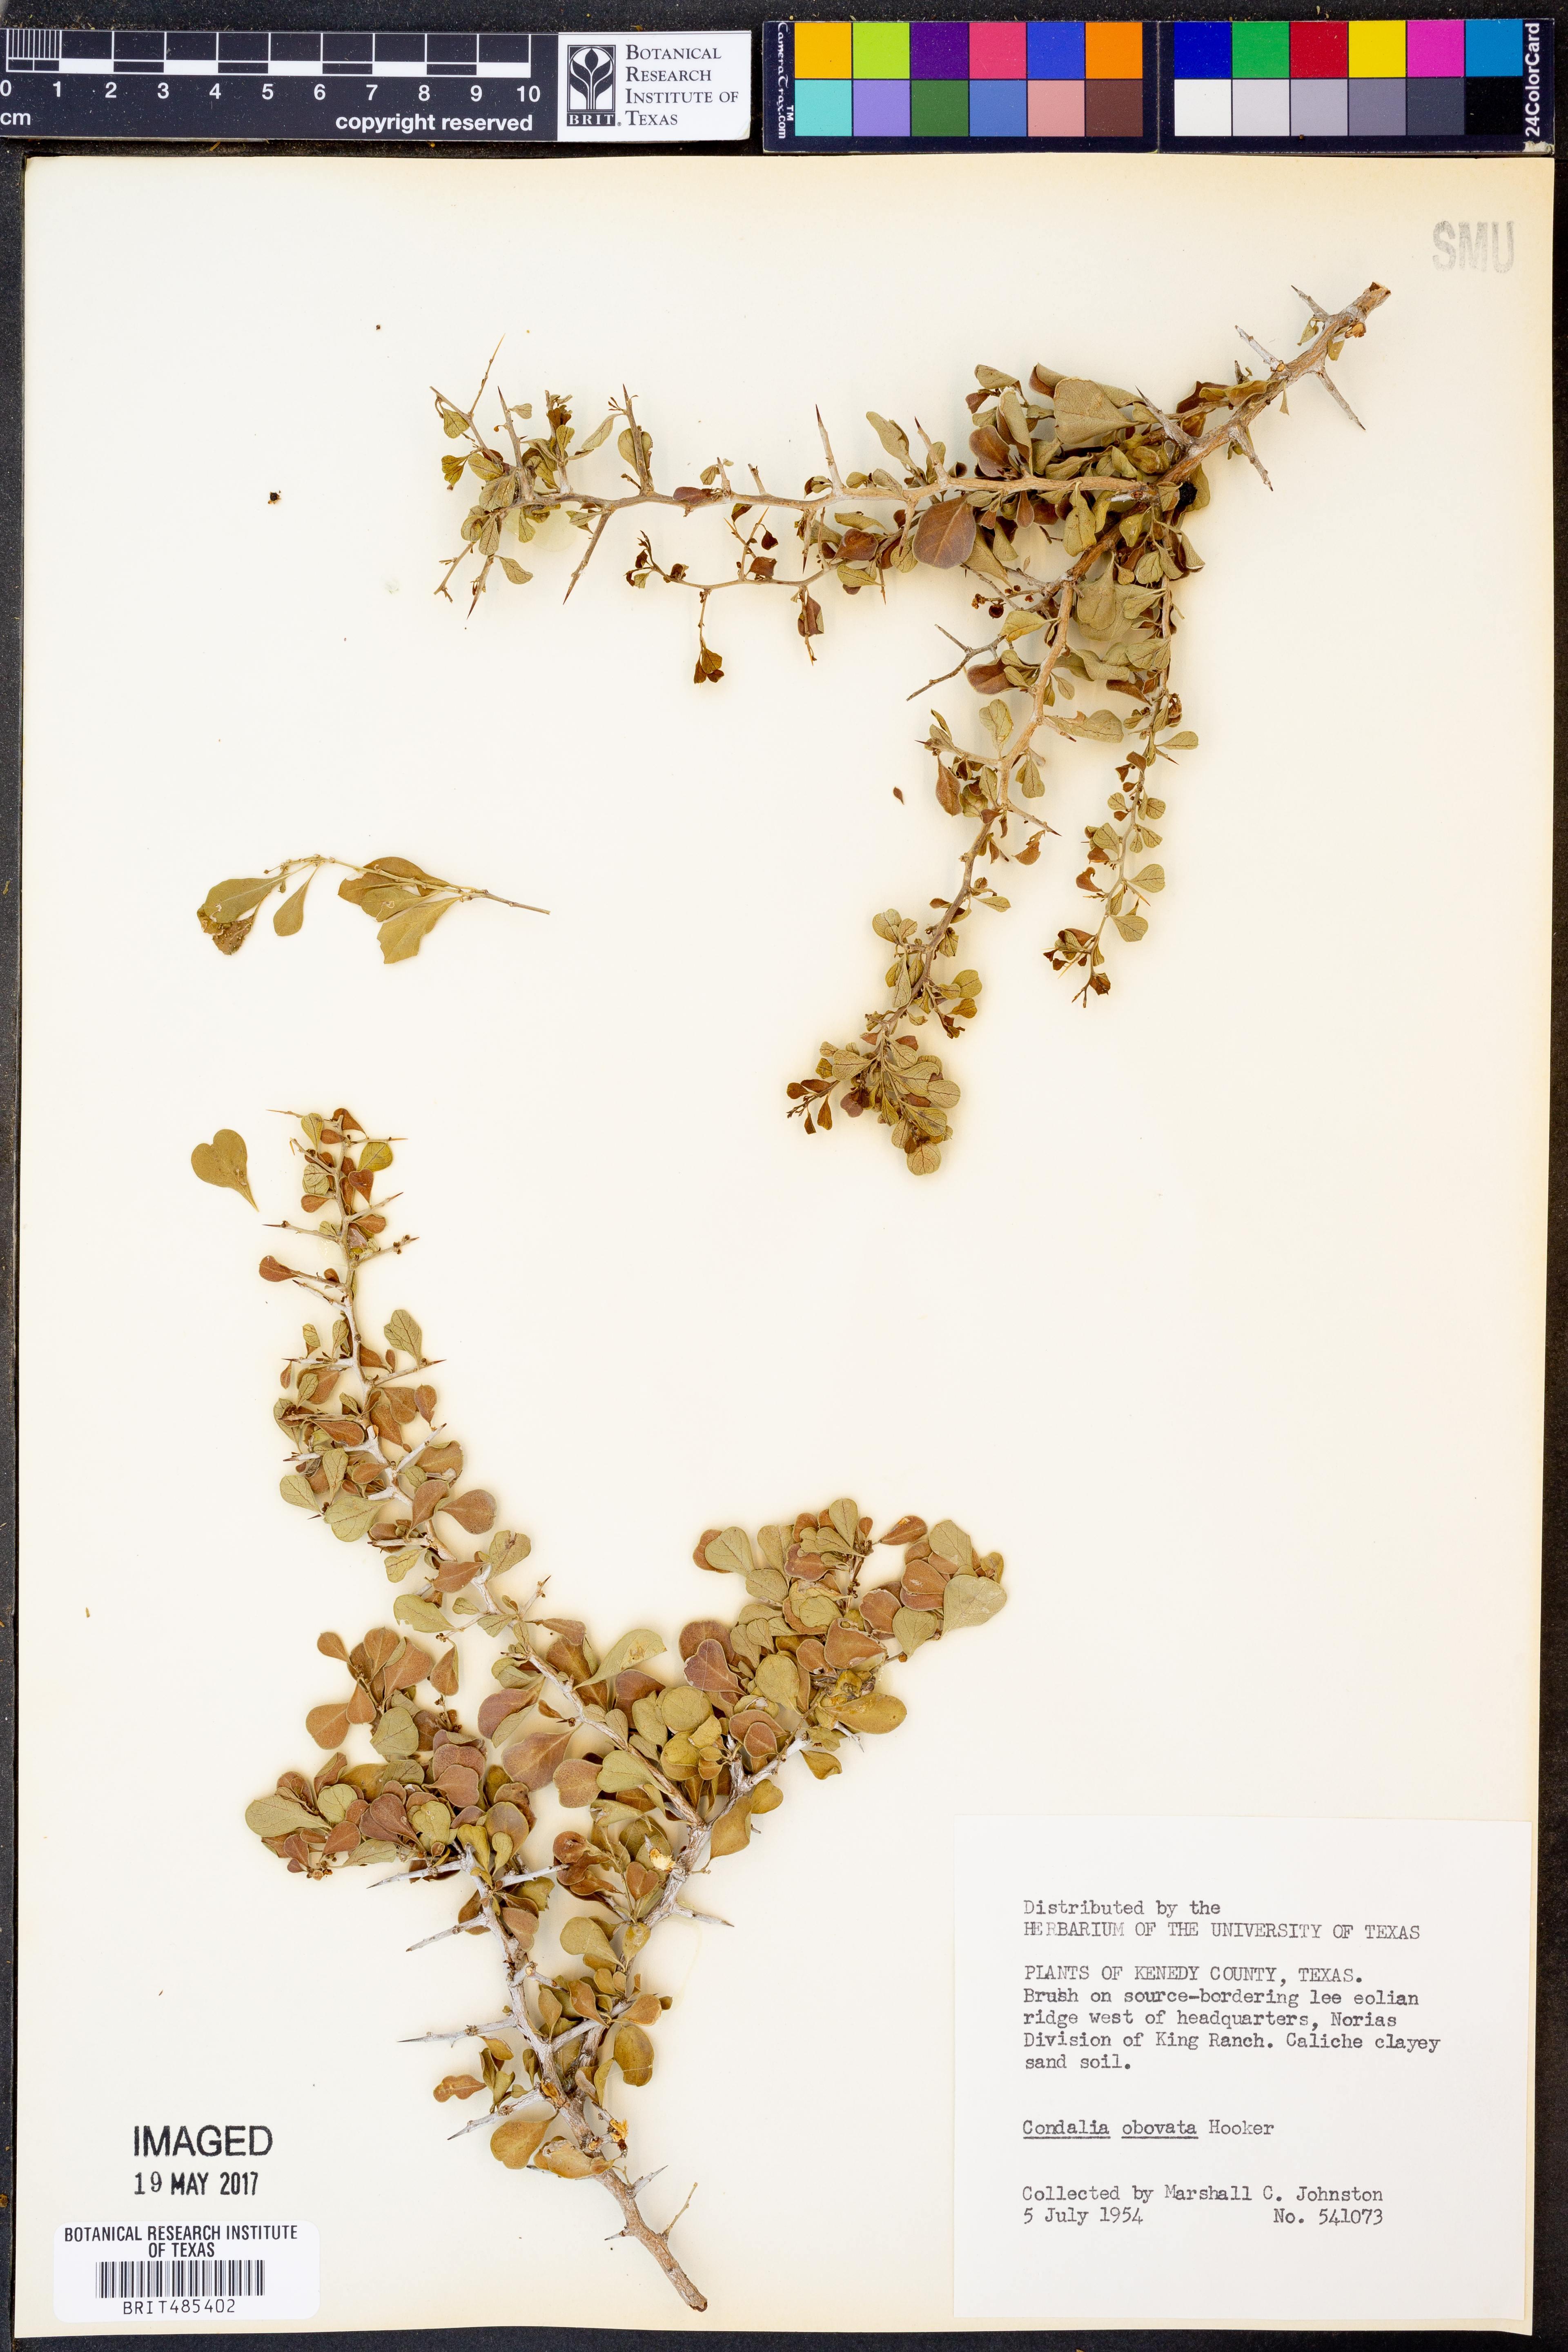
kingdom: Plantae
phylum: Tracheophyta
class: Magnoliopsida
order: Rosales
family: Rhamnaceae
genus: Condalia
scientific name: Condalia hookeri
